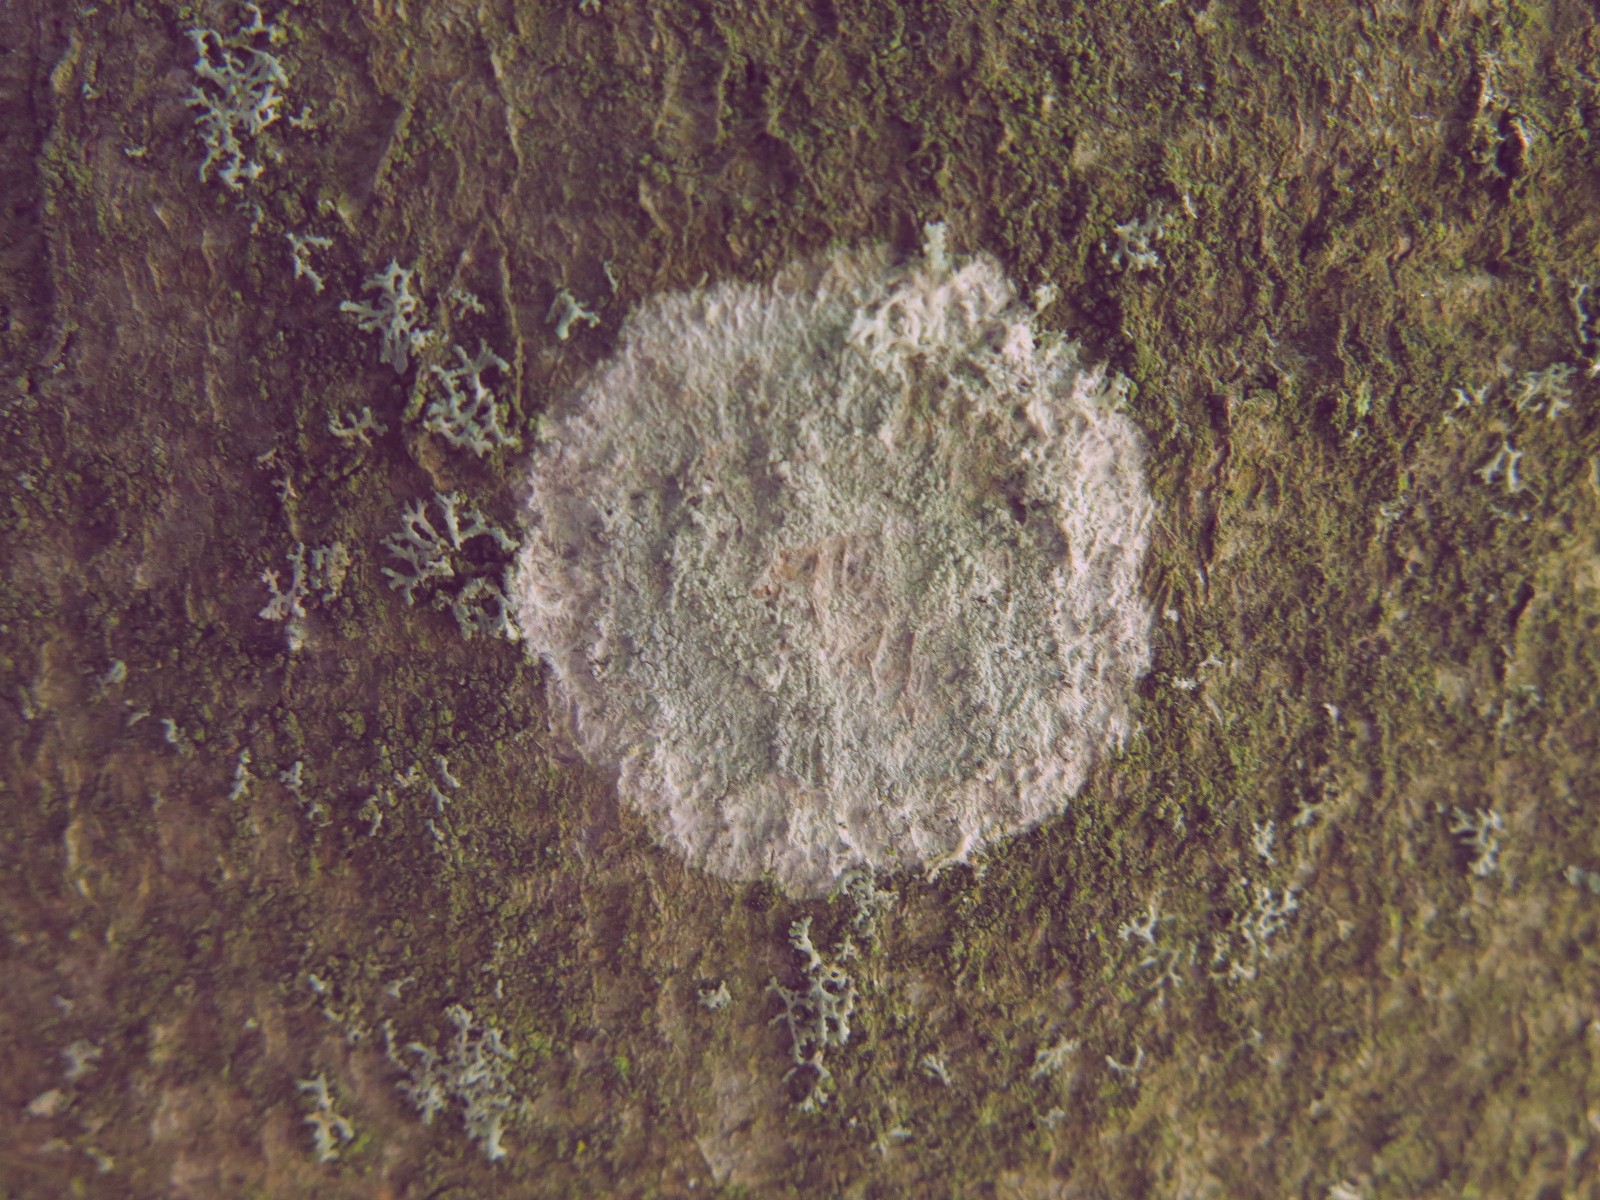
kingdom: Fungi
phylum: Ascomycota
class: Lecanoromycetes
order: Ostropales
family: Phlyctidaceae
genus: Phlyctis
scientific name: Phlyctis argena
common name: almindelig sølvlav
